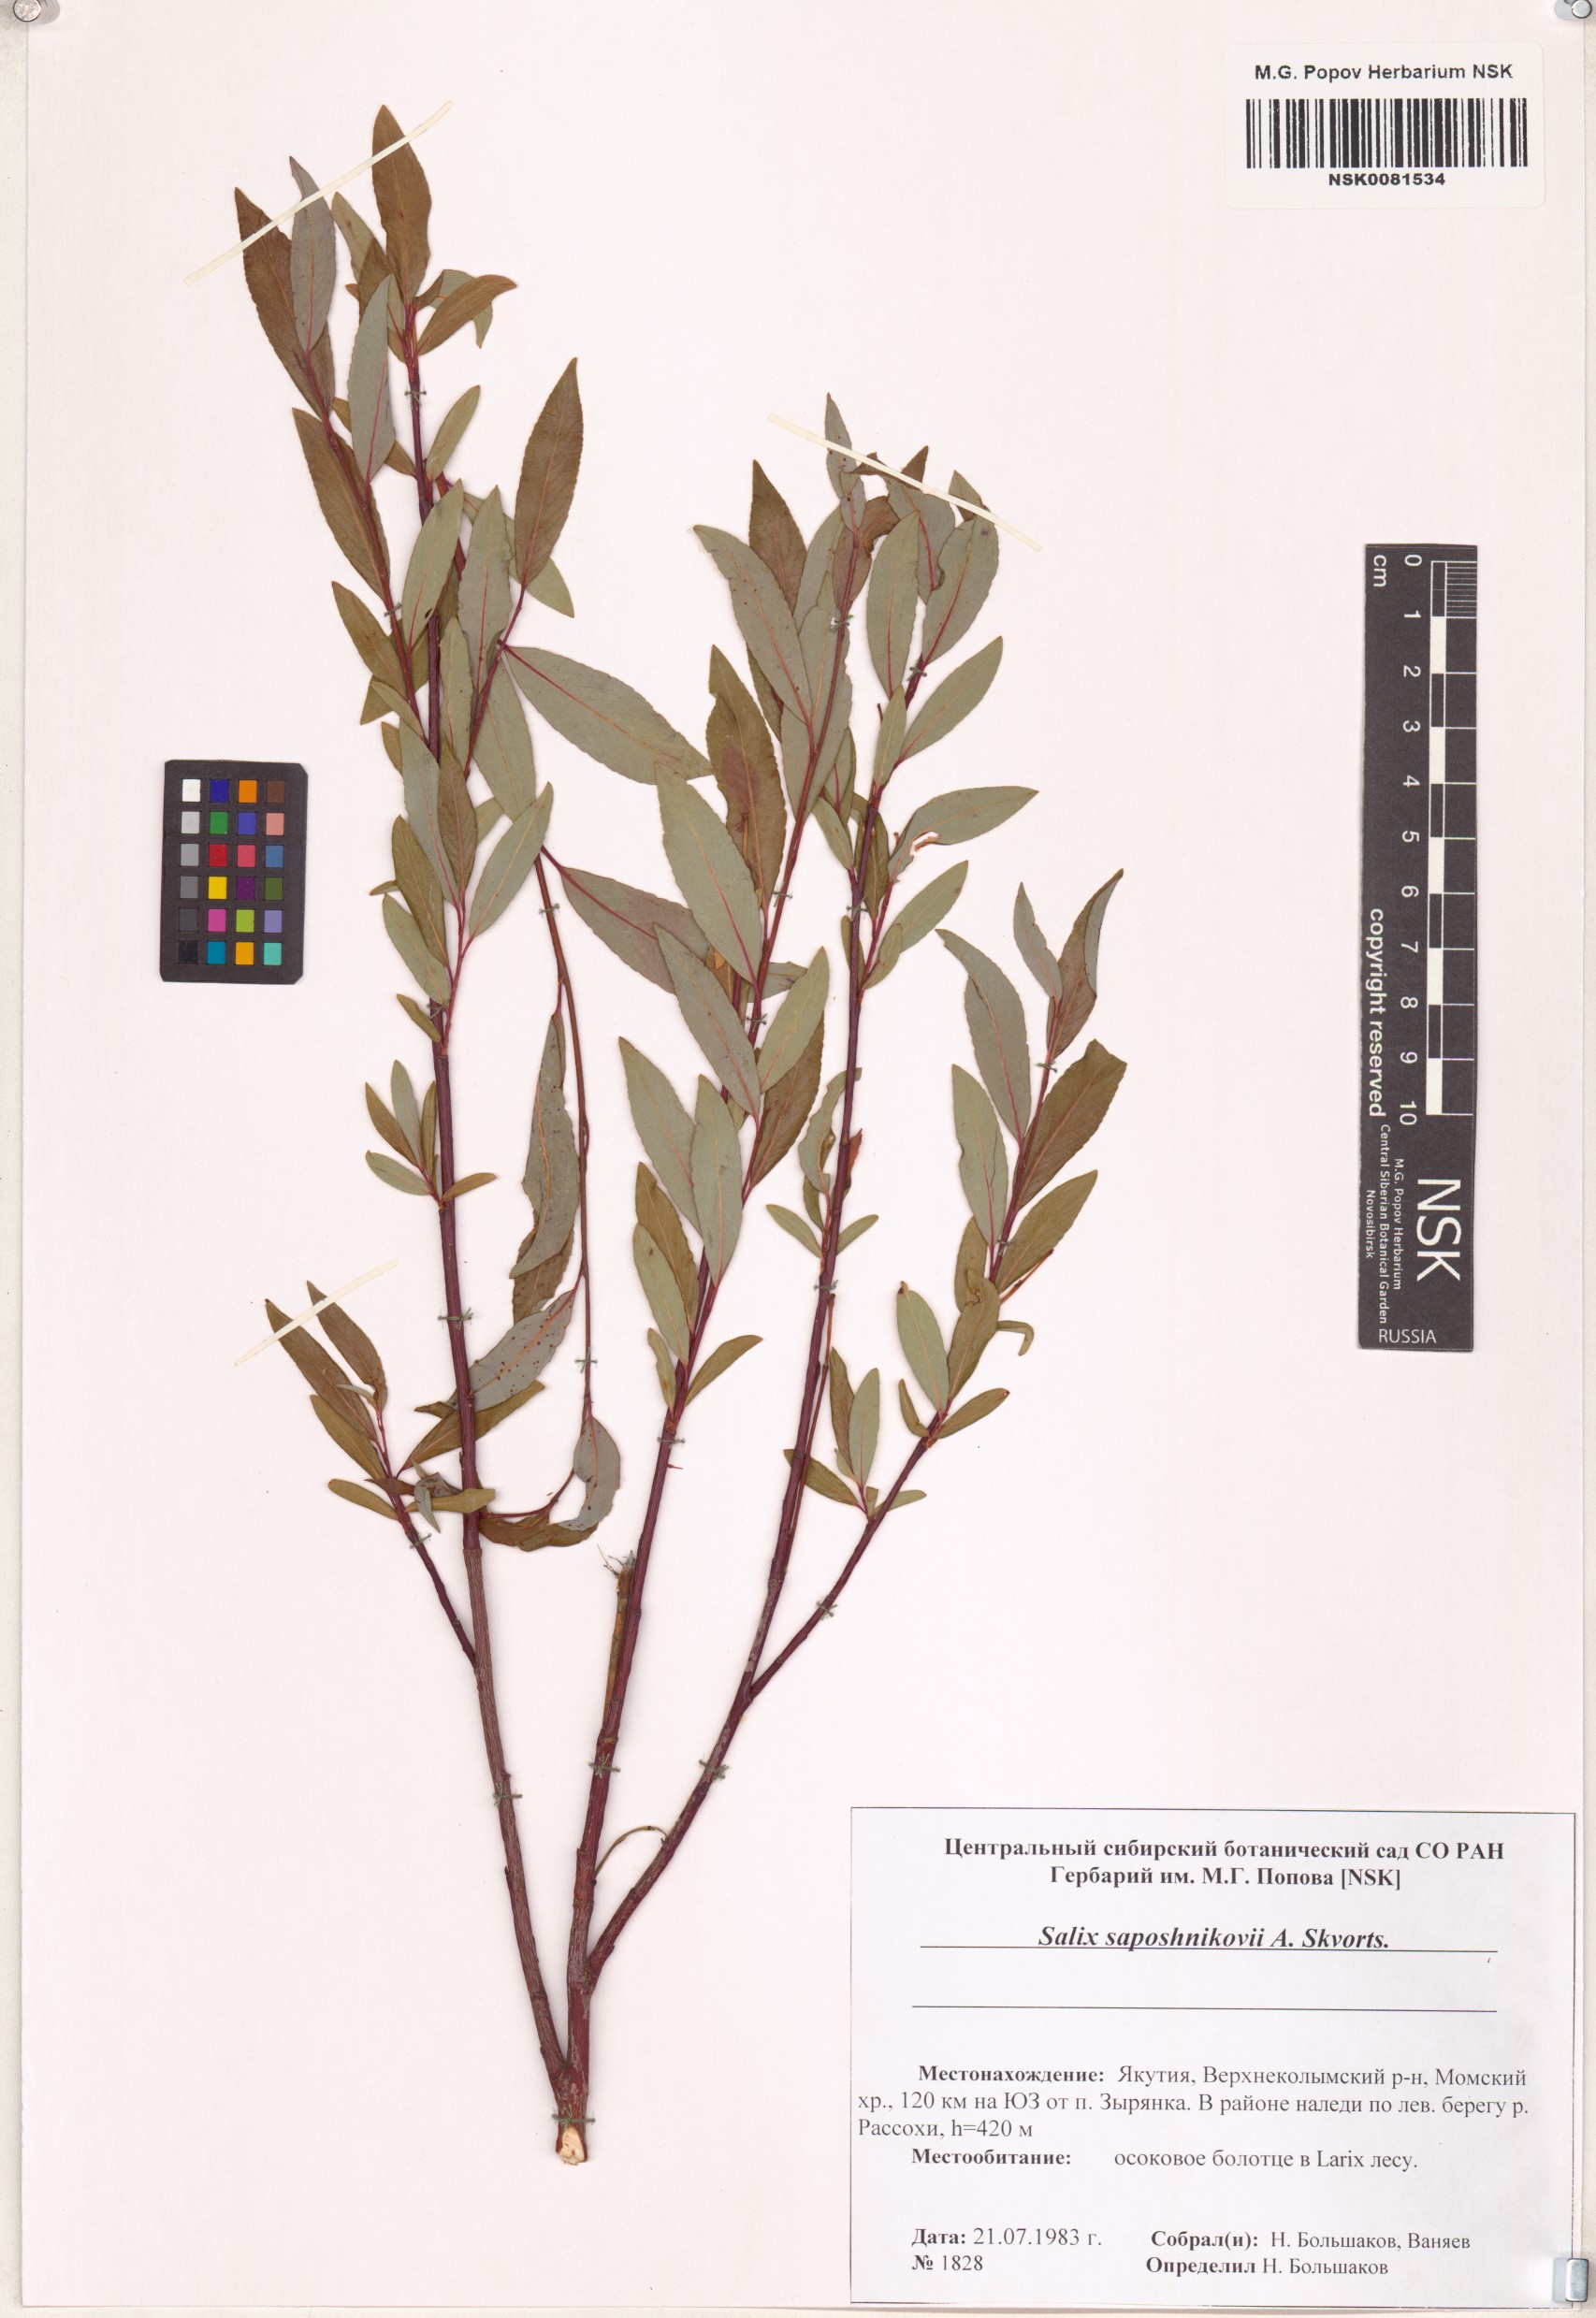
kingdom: Plantae
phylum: Tracheophyta
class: Magnoliopsida
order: Malpighiales
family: Salicaceae
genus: Salix
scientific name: Salix saposhnikovii
